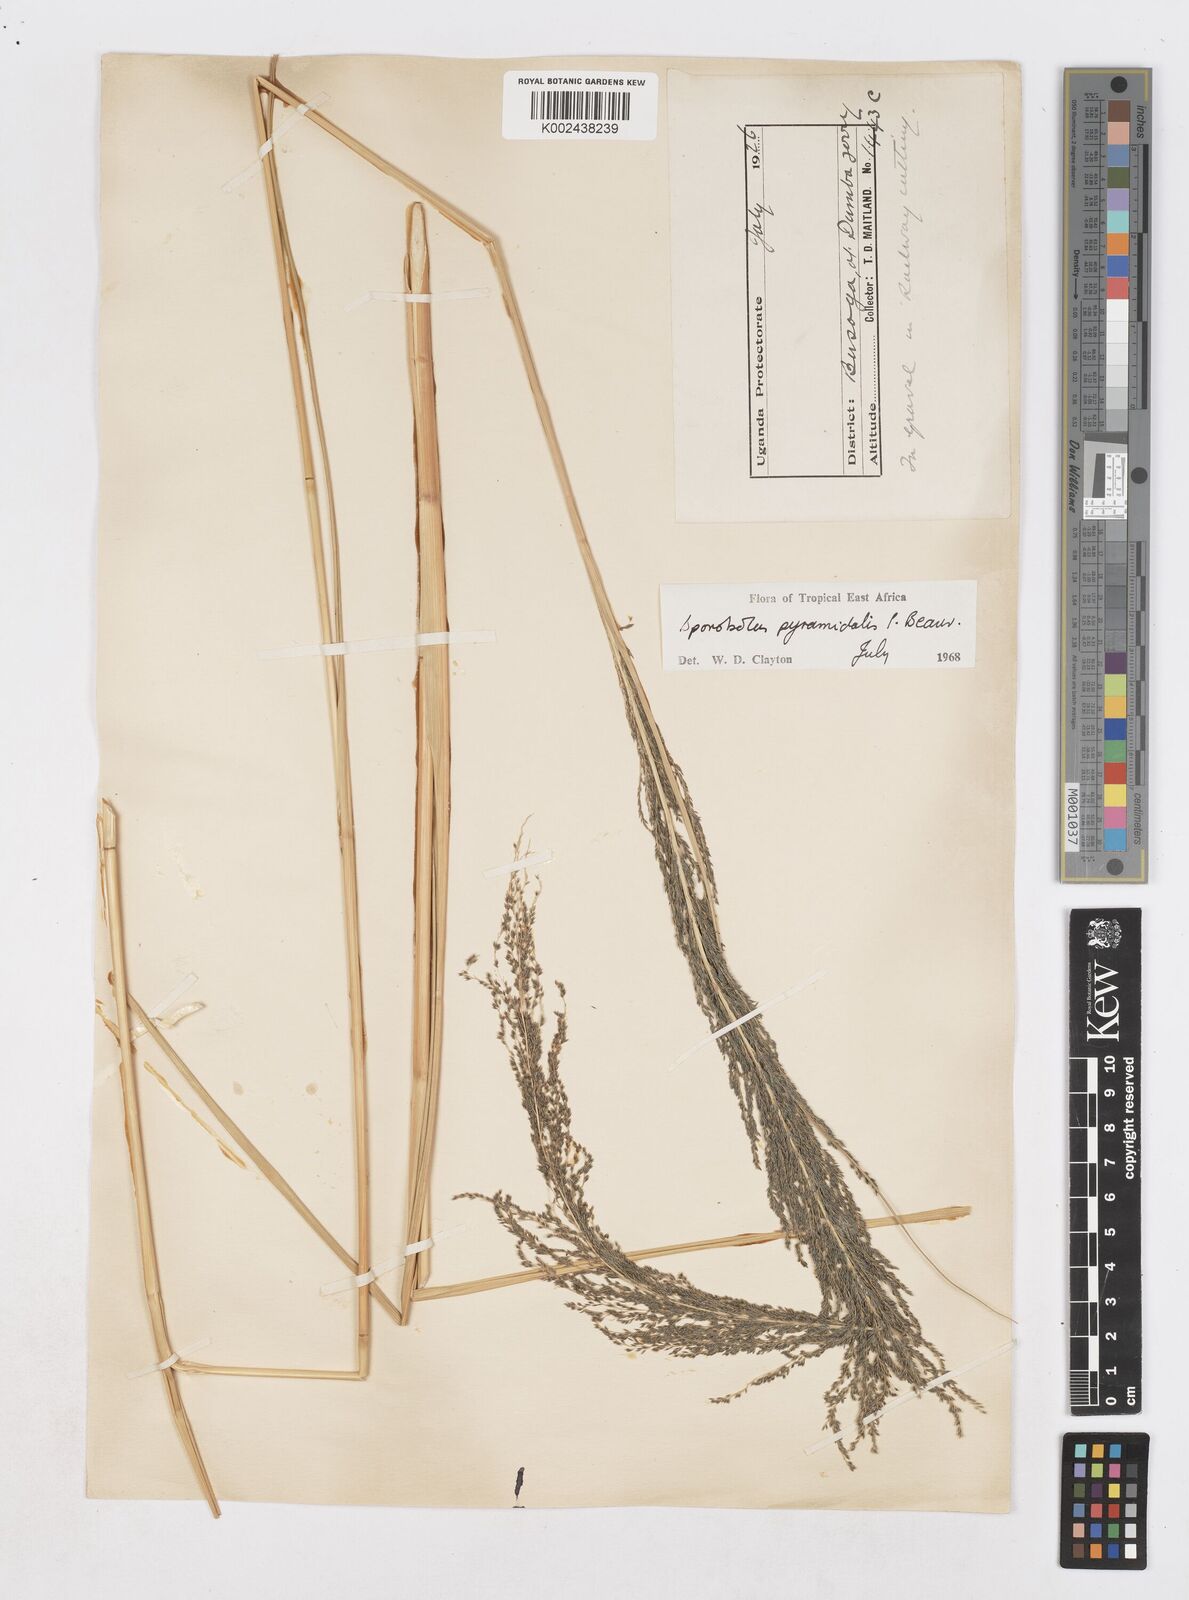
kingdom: Plantae
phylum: Tracheophyta
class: Liliopsida
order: Poales
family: Poaceae
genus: Sporobolus
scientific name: Sporobolus pyramidalis
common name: West indian dropseed
